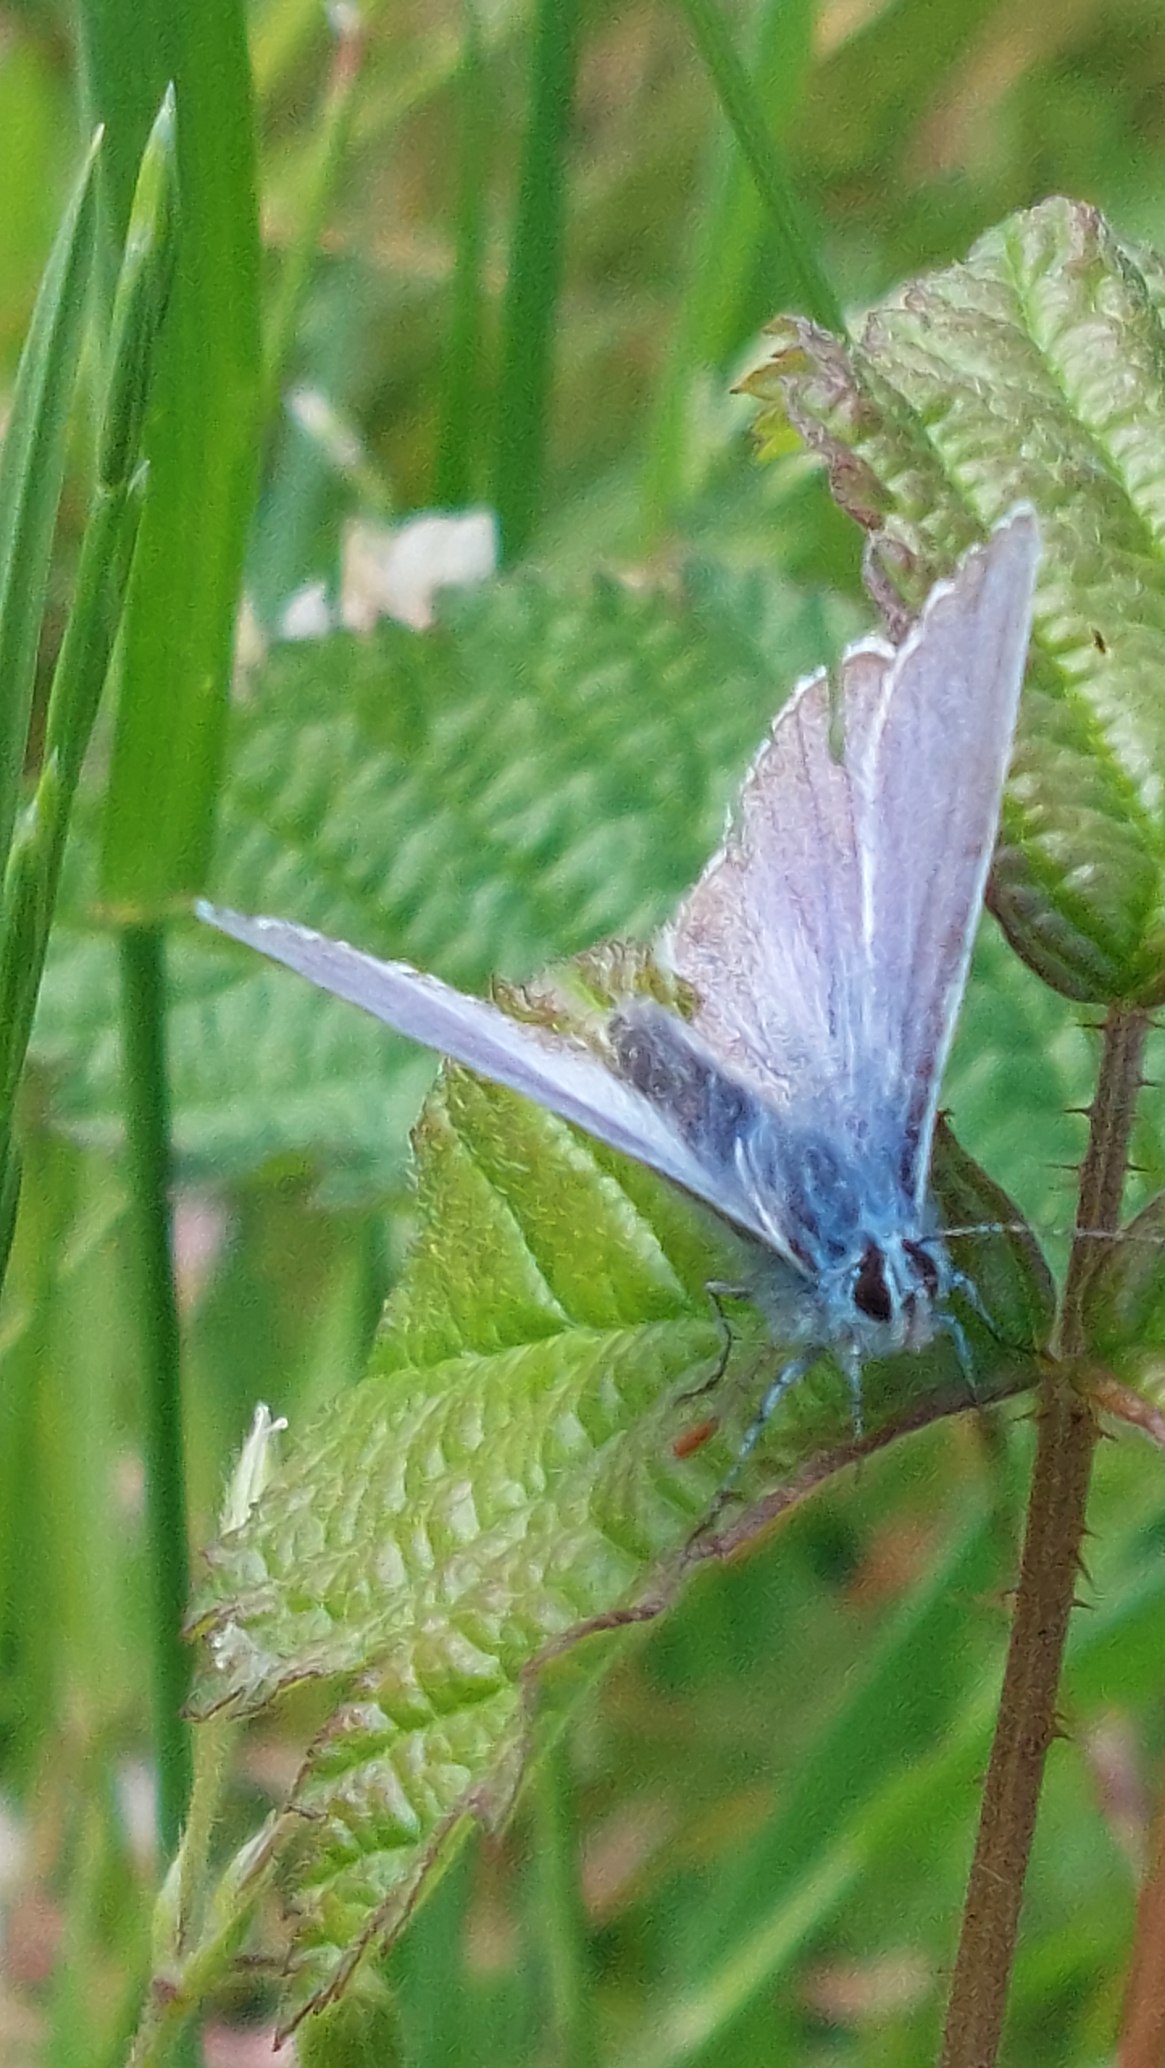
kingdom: Animalia
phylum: Arthropoda
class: Insecta
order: Lepidoptera
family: Lycaenidae
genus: Polyommatus
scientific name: Polyommatus icarus
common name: Almindelig blåfugl
